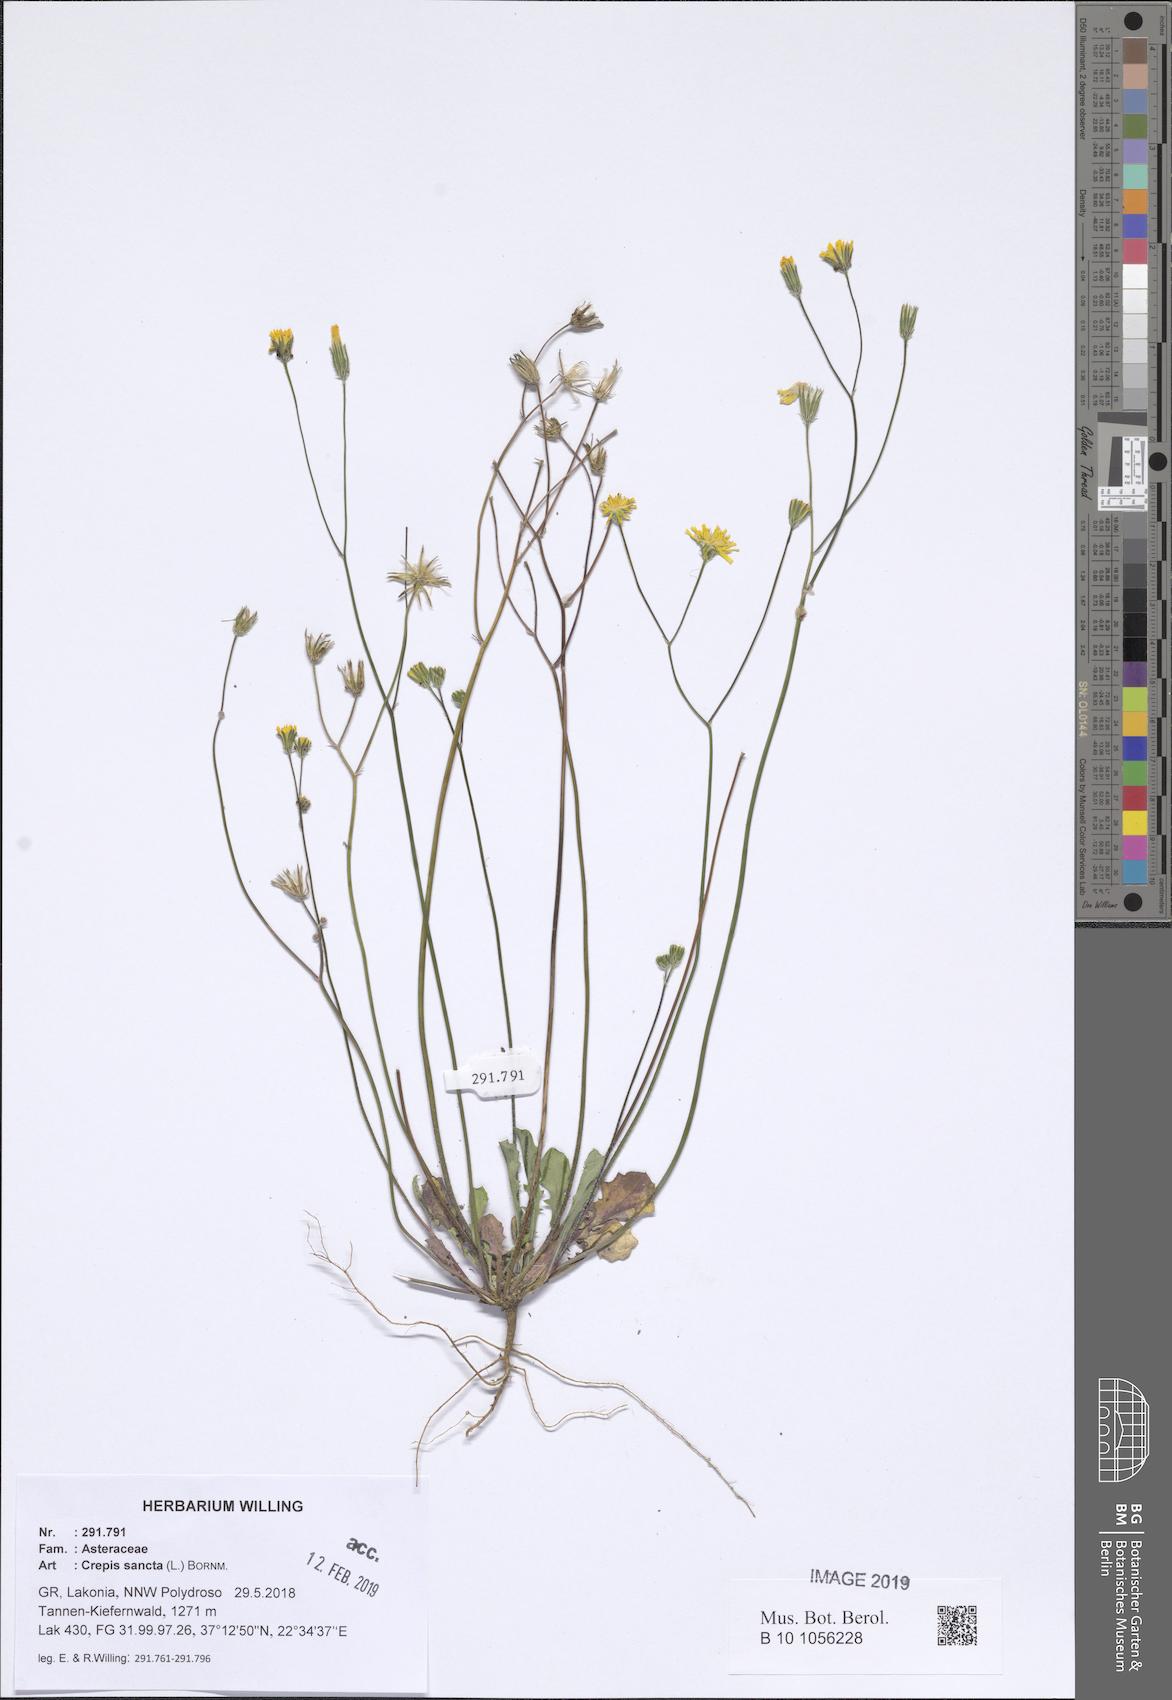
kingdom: Plantae
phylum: Tracheophyta
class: Magnoliopsida
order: Asterales
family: Asteraceae
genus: Crepis
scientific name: Crepis sancta
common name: Hawk's-beard
